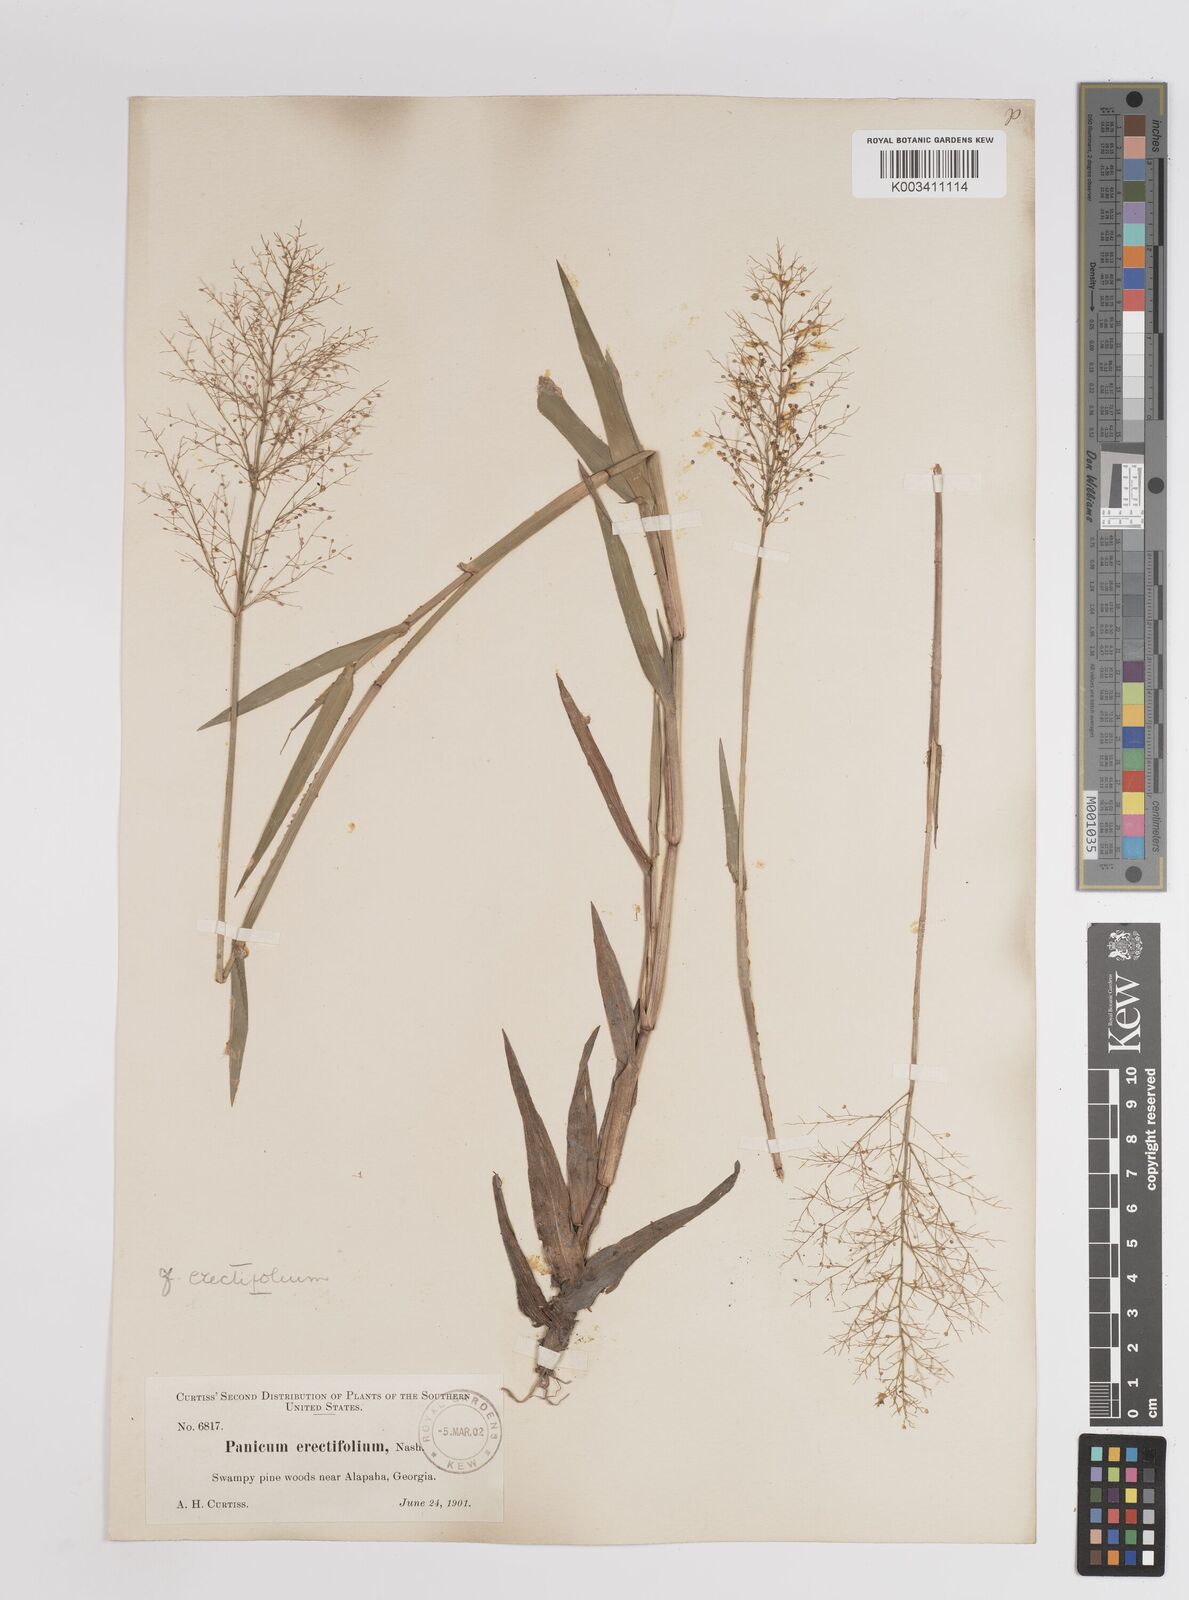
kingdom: Plantae
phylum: Tracheophyta
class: Liliopsida
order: Poales
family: Poaceae
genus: Dichanthelium
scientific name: Dichanthelium erectifolium
